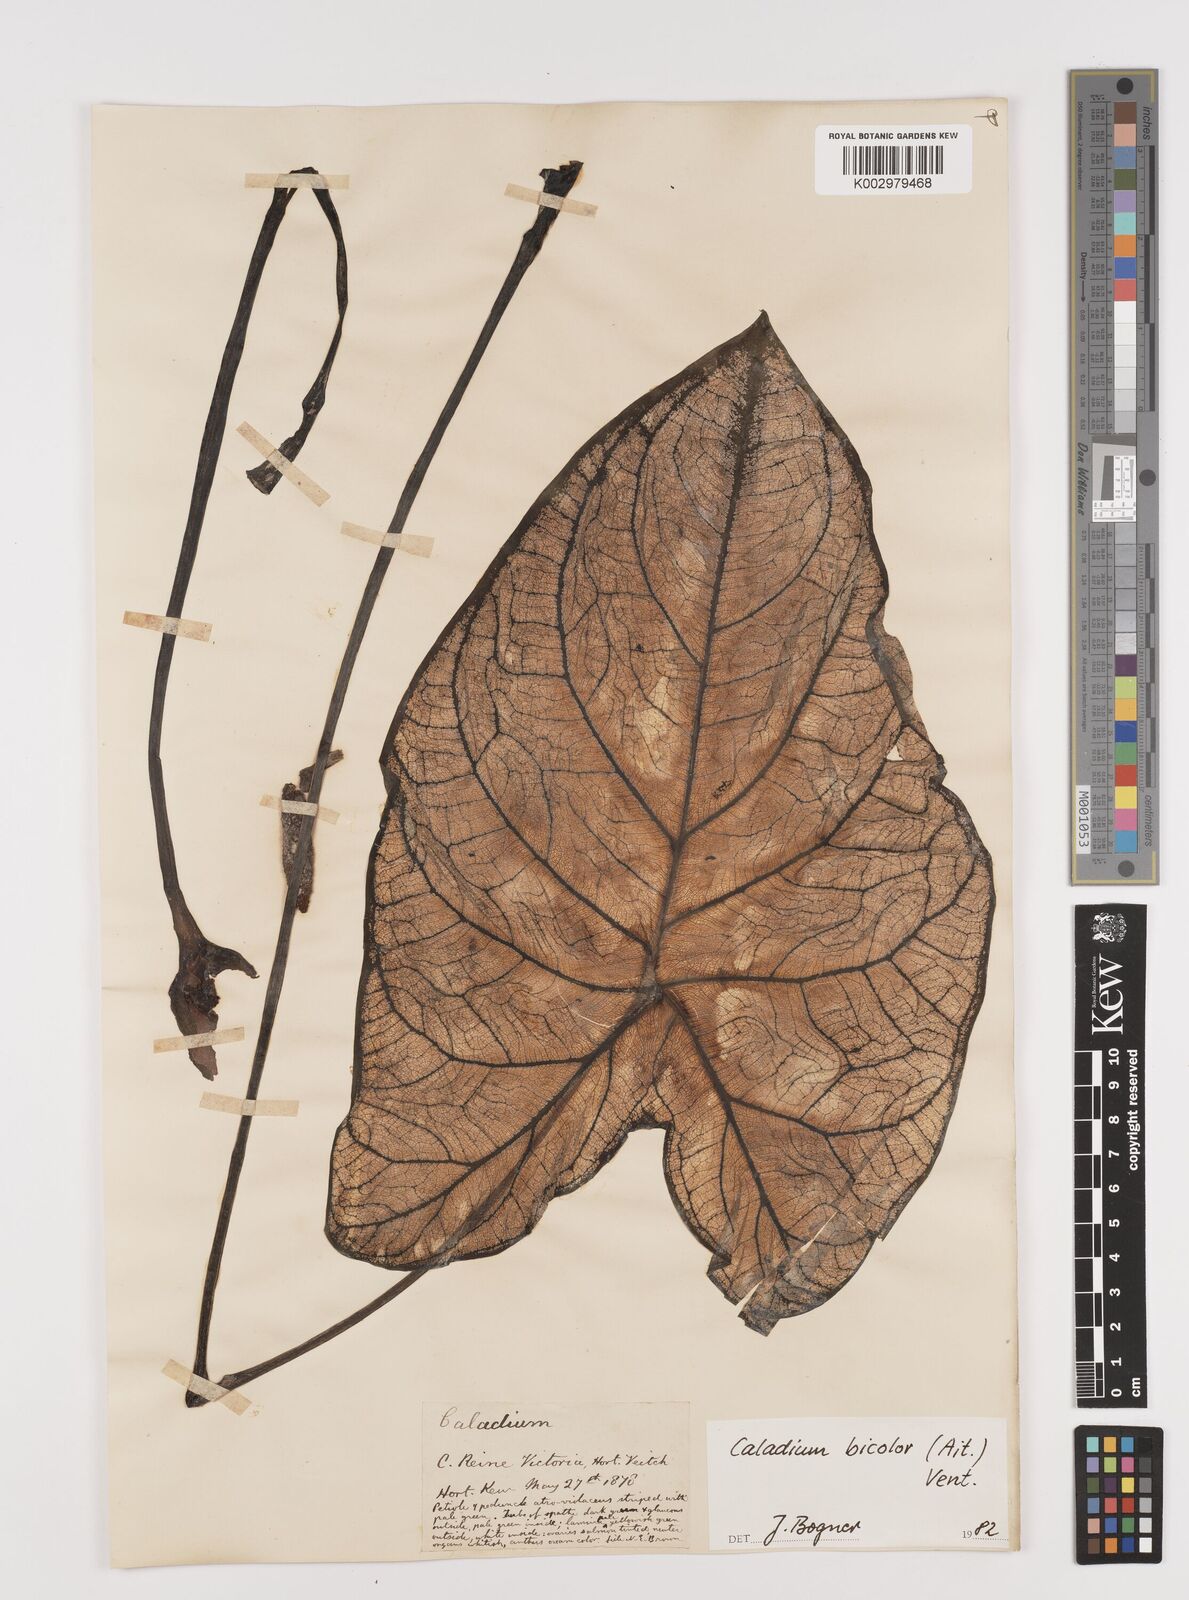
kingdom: Plantae
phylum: Tracheophyta
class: Liliopsida
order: Alismatales
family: Araceae
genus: Caladium
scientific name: Caladium bicolor
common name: Artist's pallet
